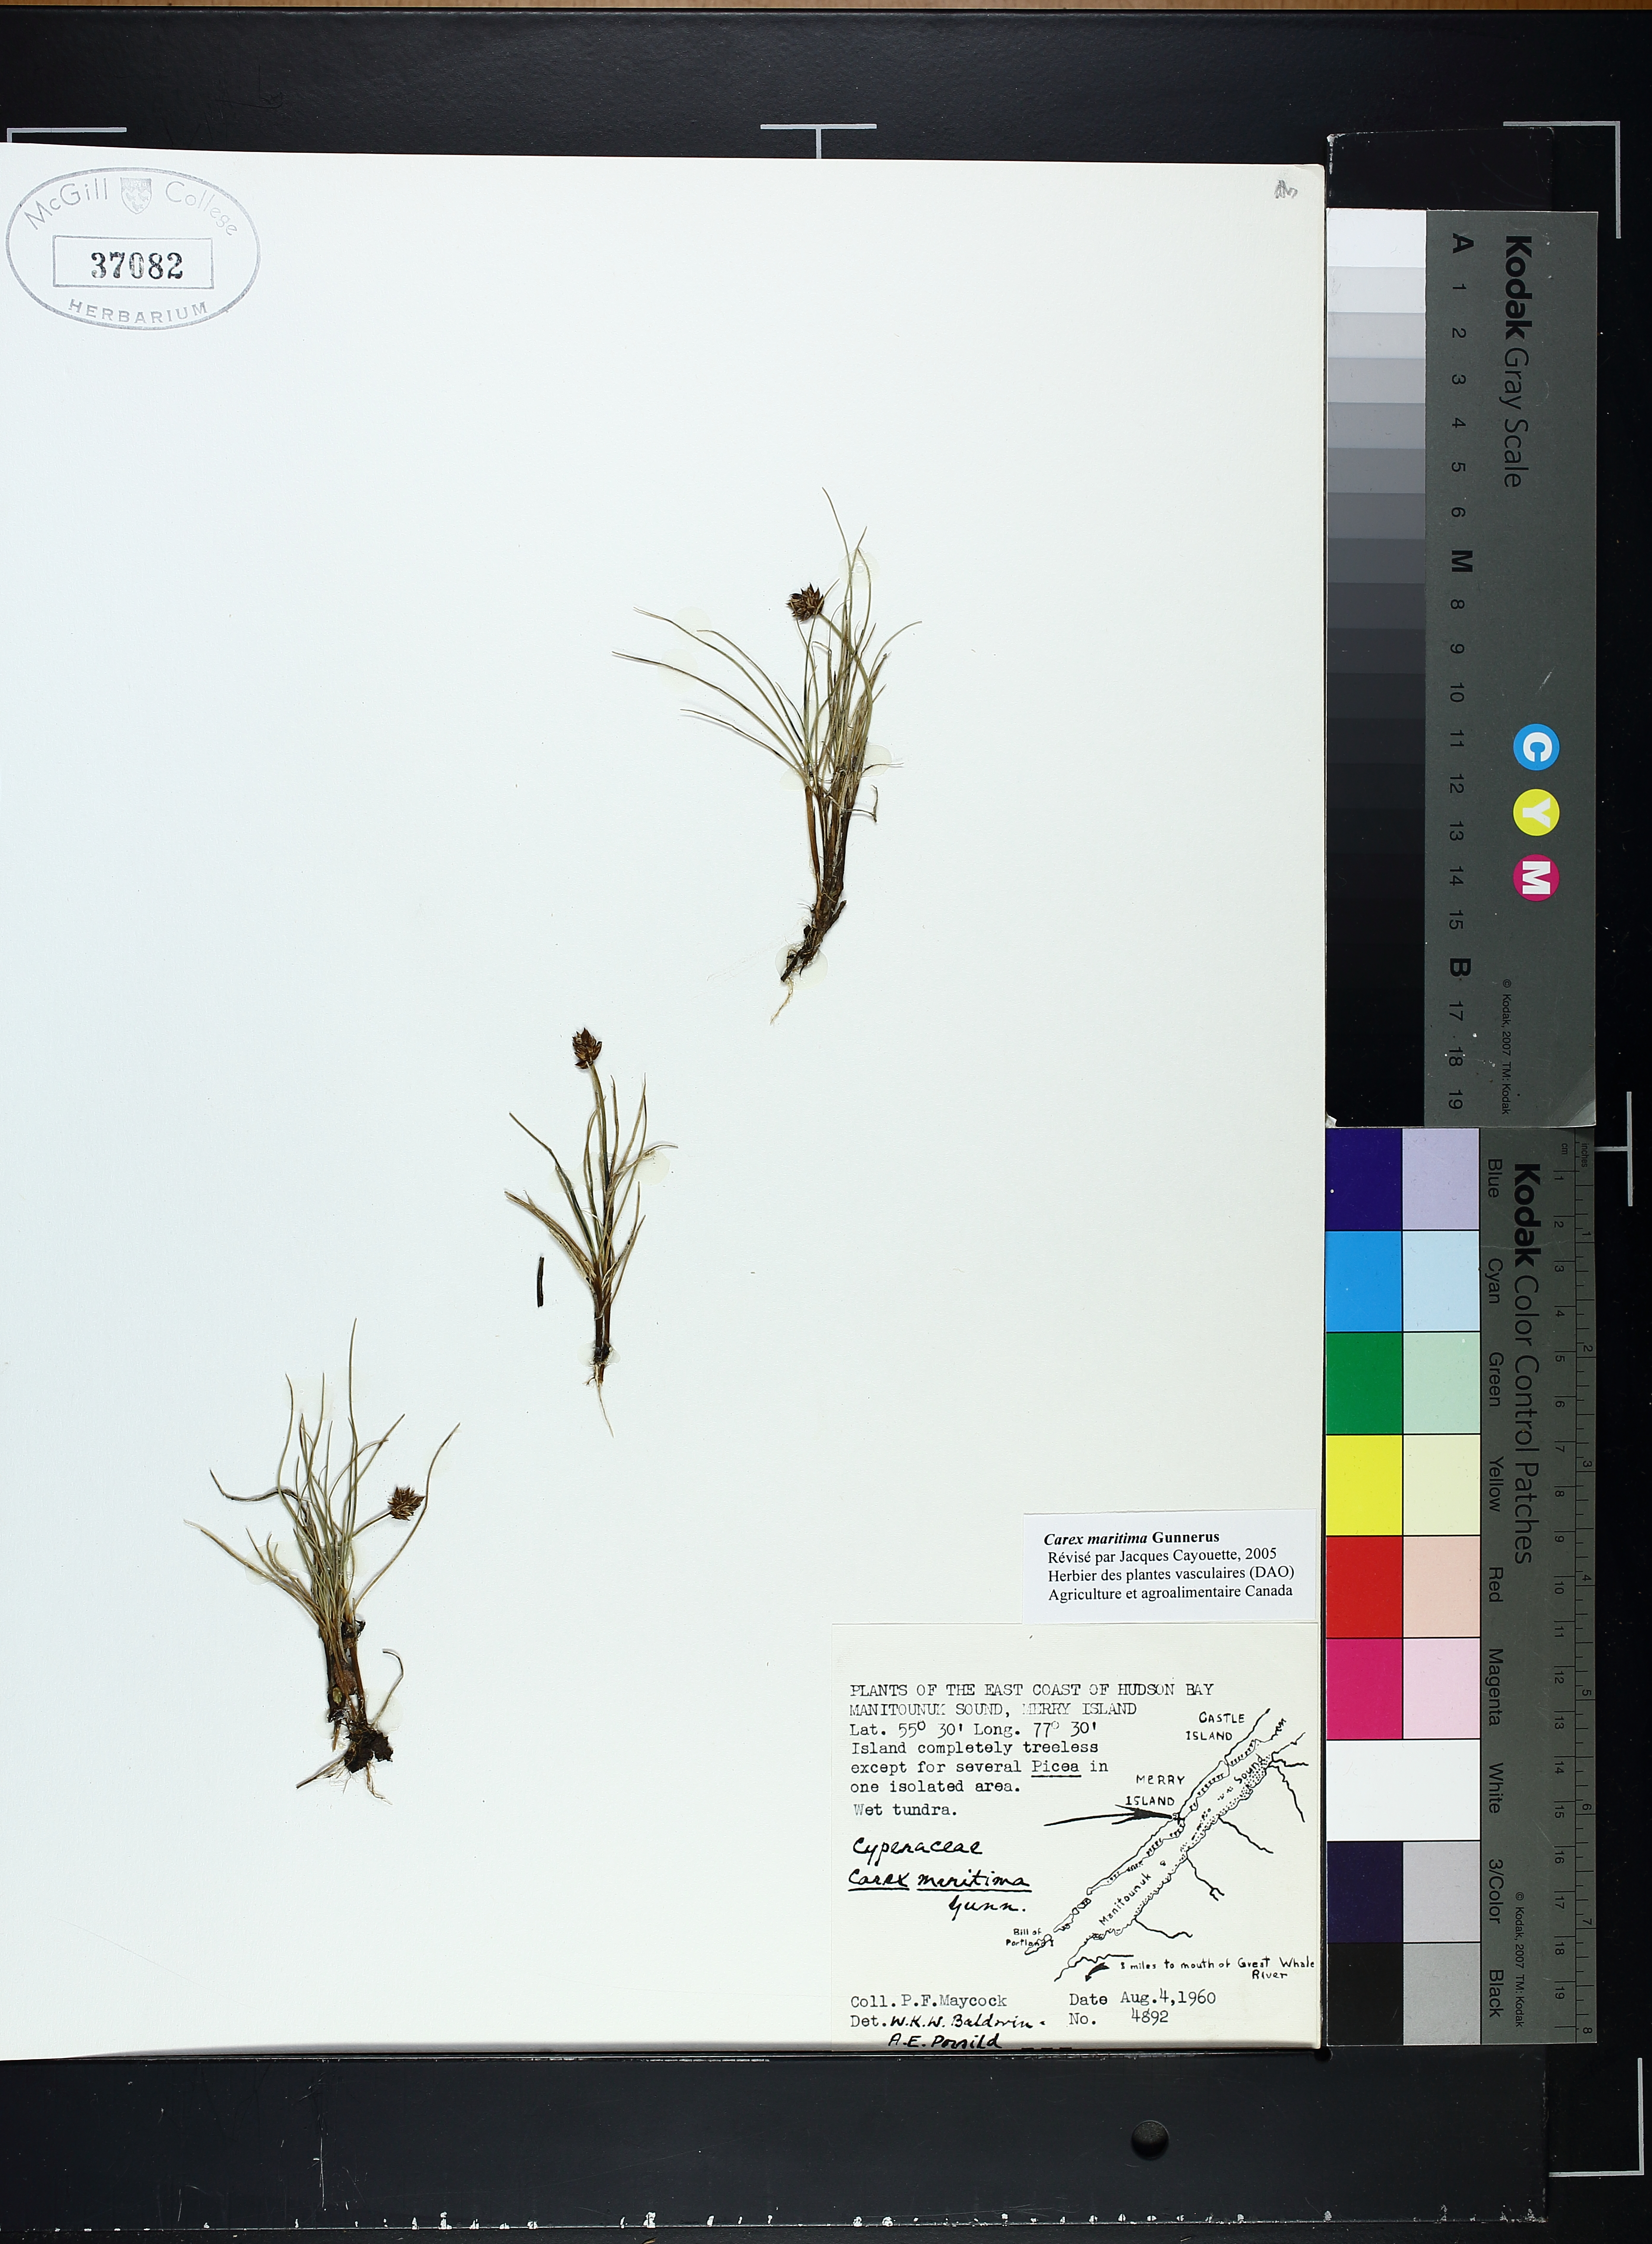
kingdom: Plantae
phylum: Tracheophyta
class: Liliopsida
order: Poales
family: Cyperaceae
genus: Carex
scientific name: Carex maritima
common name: Curved sedge
